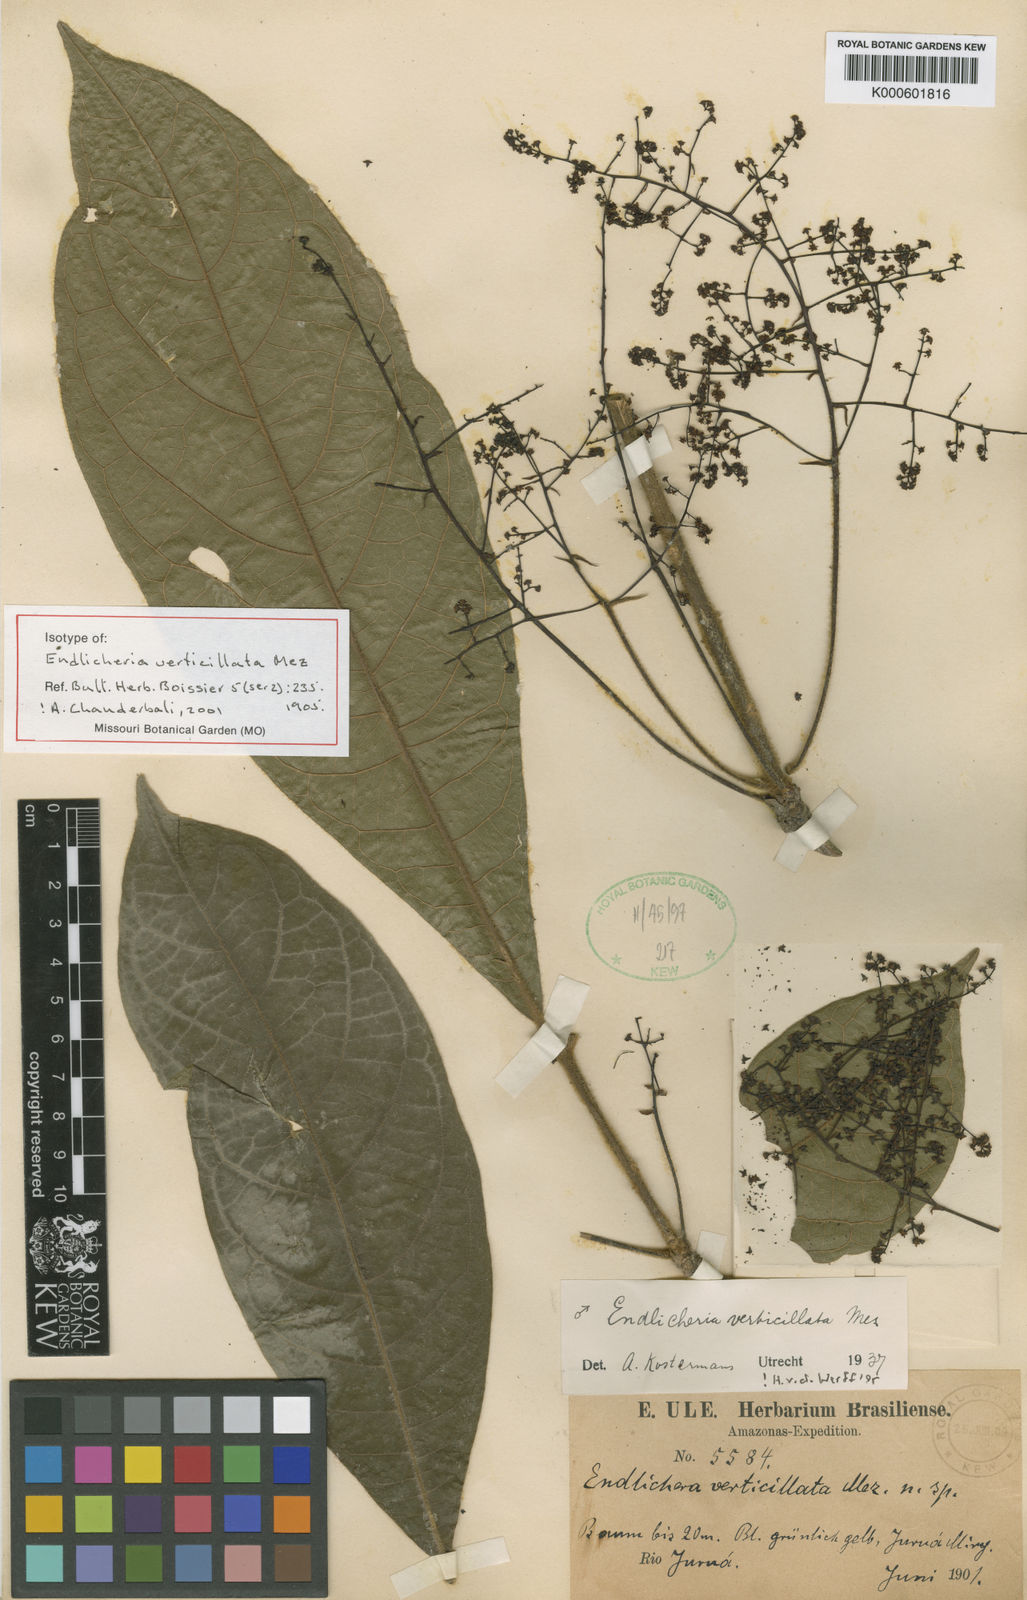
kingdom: Plantae
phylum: Tracheophyta
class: Magnoliopsida
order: Laurales
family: Lauraceae
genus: Endlicheria
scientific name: Endlicheria verticillata
